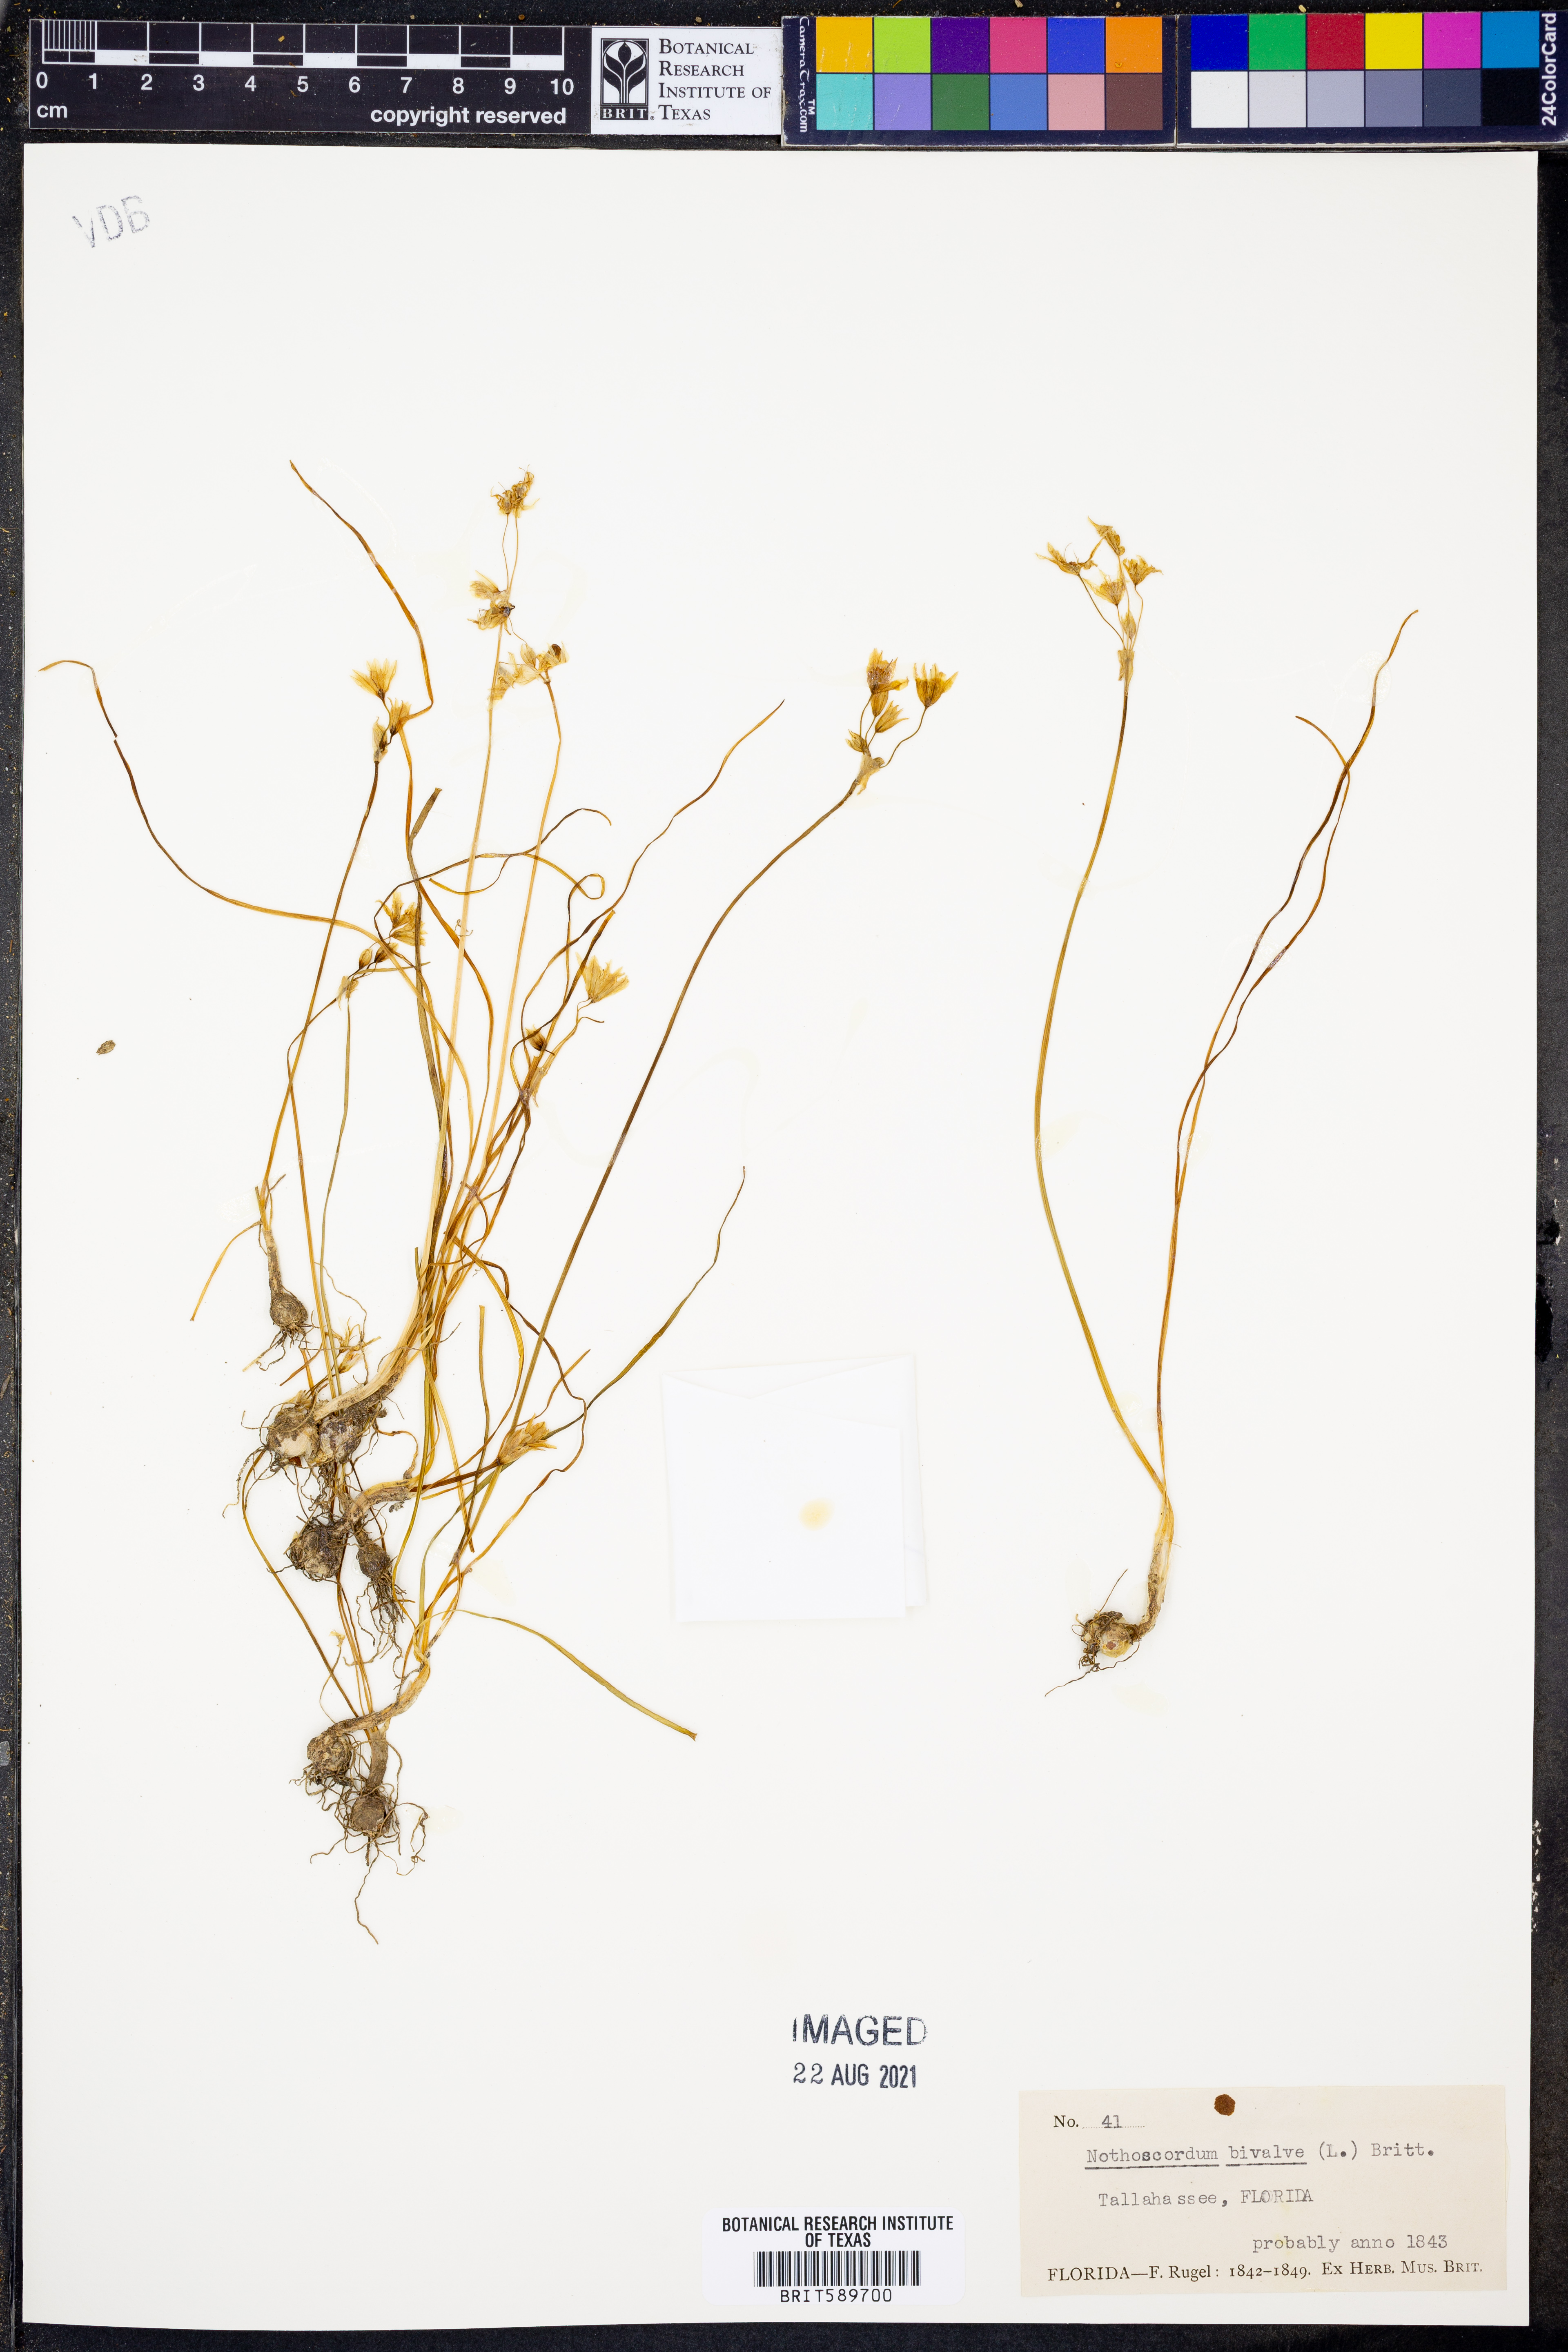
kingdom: Plantae
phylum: Tracheophyta
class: Liliopsida
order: Asparagales
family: Amaryllidaceae
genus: Nothoscordum
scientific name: Nothoscordum bivalve
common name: Crow-poison
